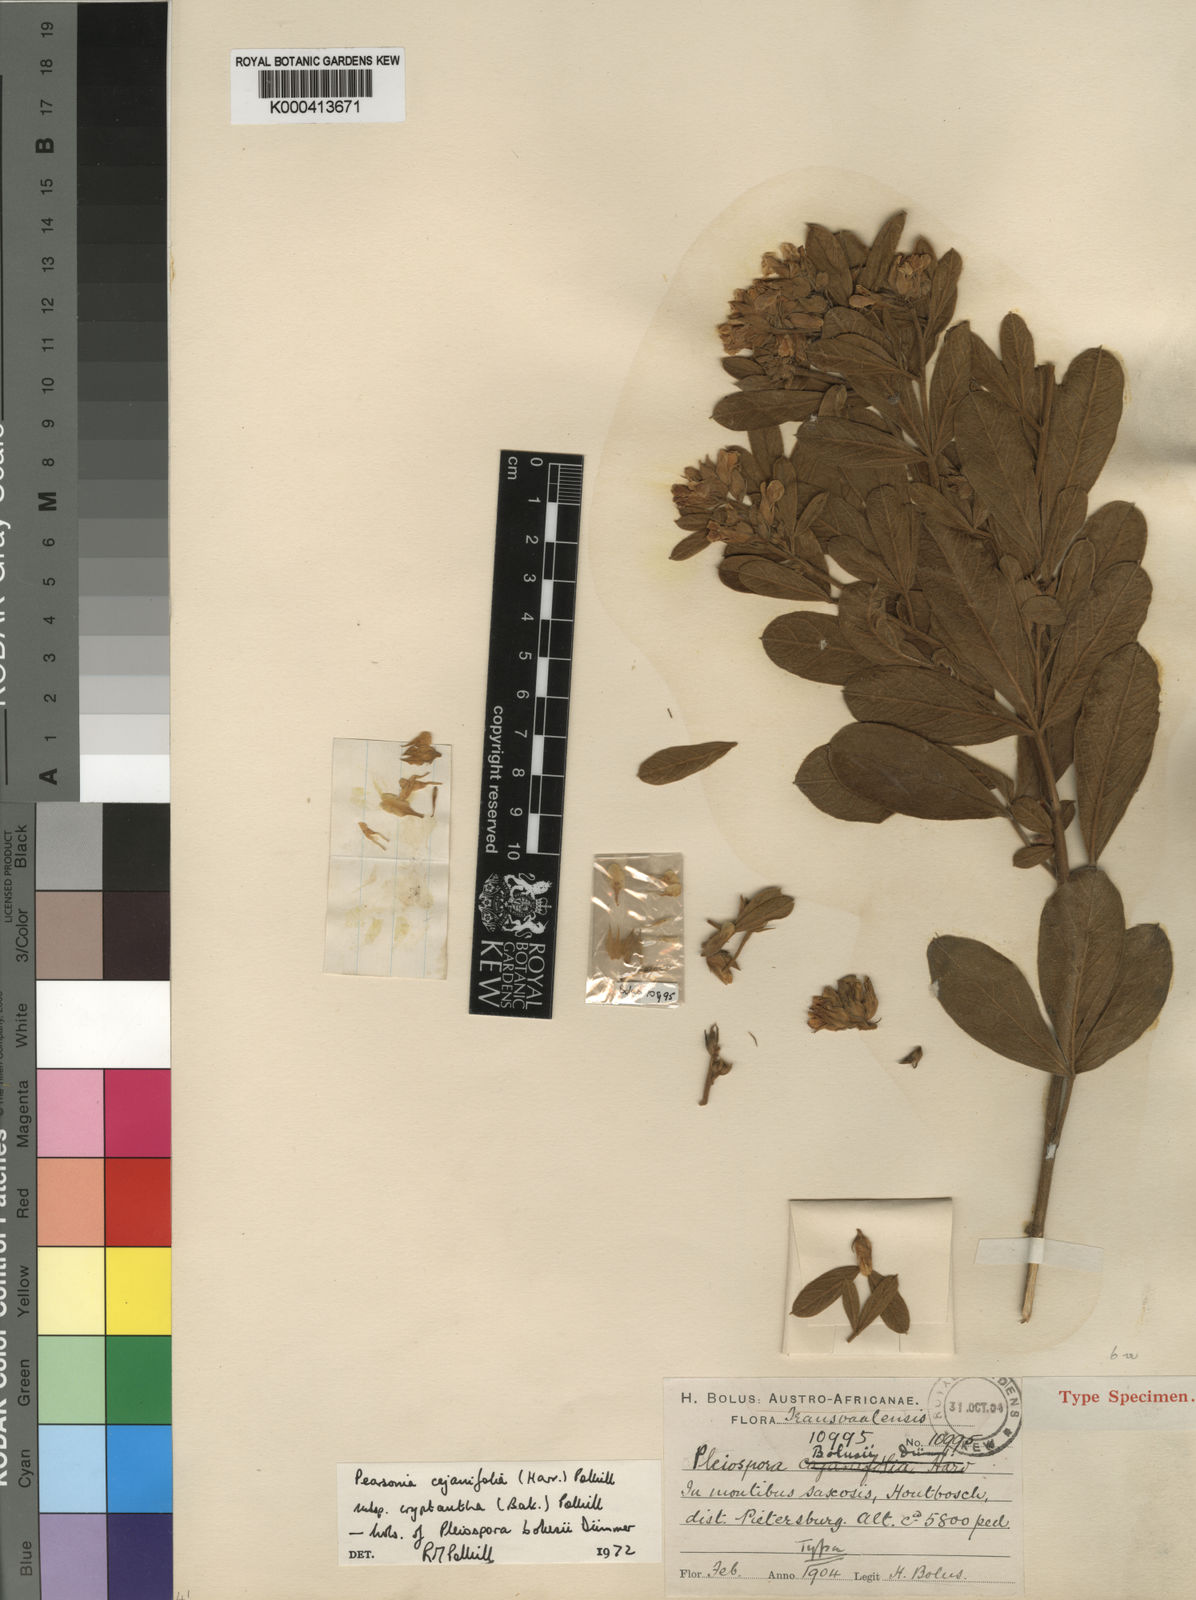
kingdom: Plantae
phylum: Tracheophyta
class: Magnoliopsida
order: Fabales
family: Fabaceae
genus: Pearsonia
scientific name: Pearsonia cajanifolia
